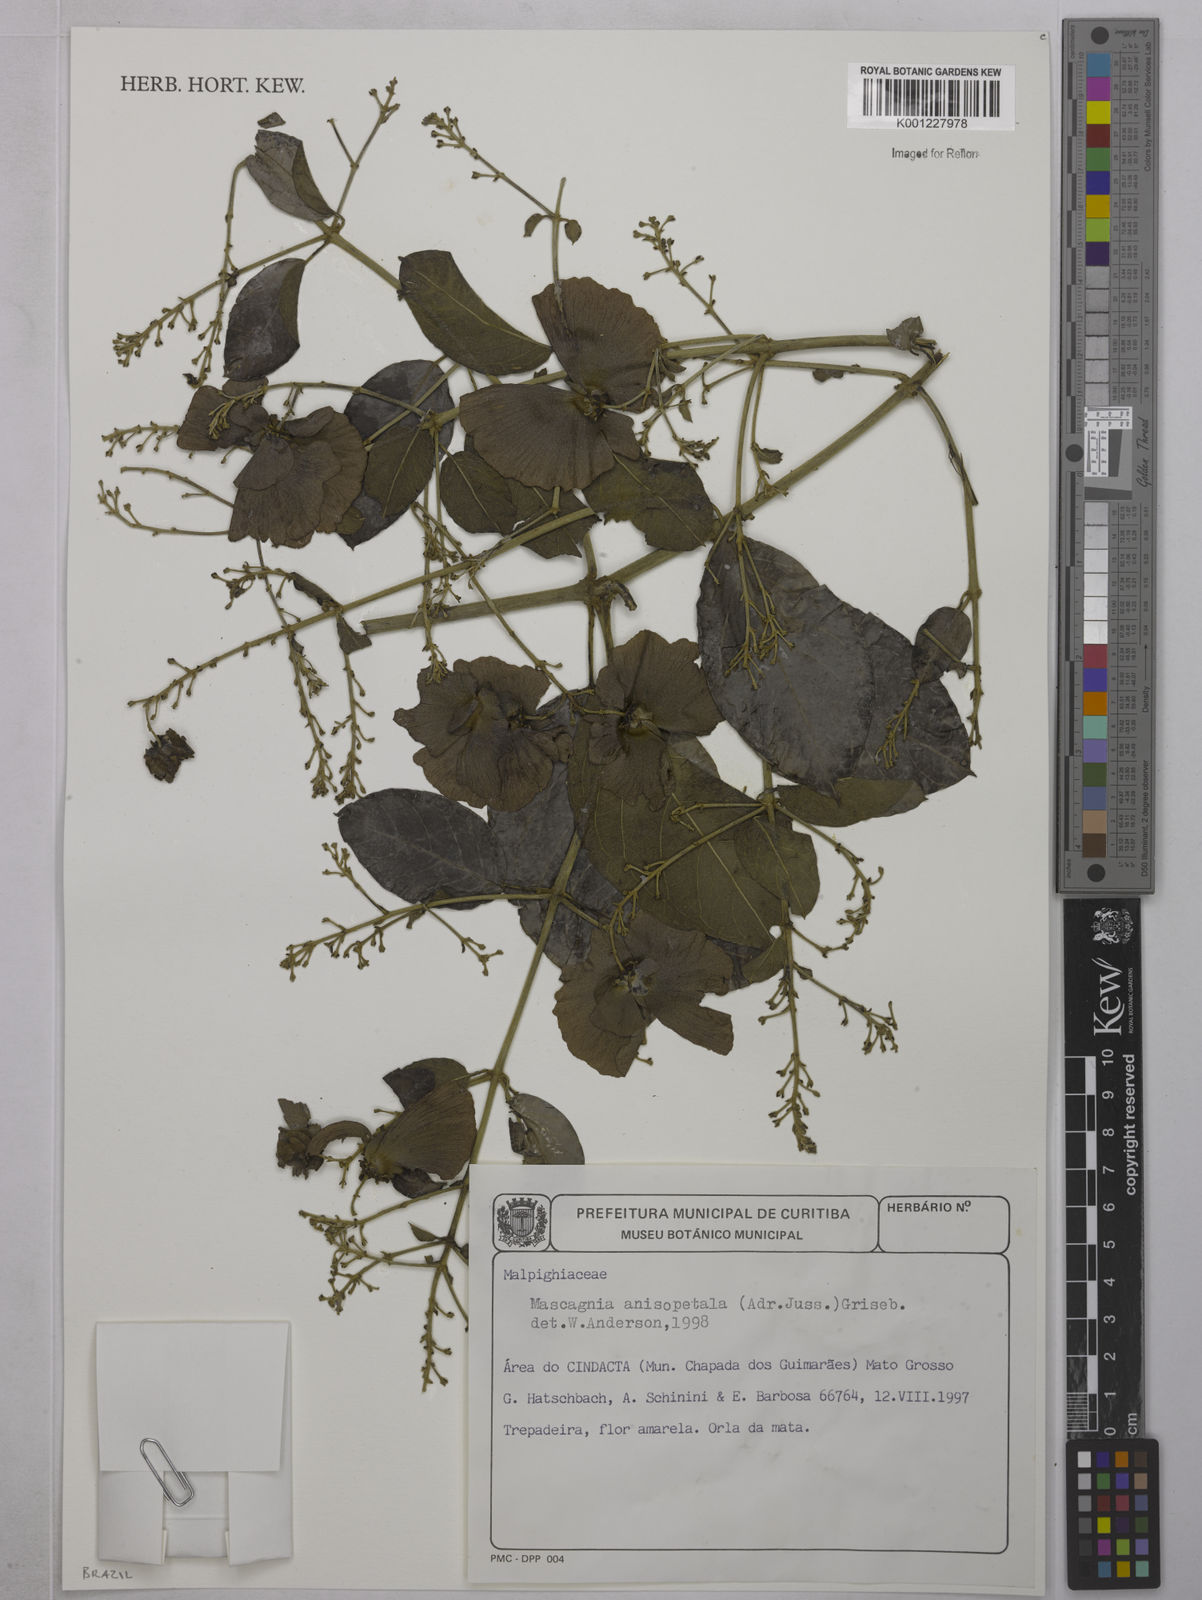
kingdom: Plantae
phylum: Tracheophyta
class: Magnoliopsida
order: Malpighiales
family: Malpighiaceae
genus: Alicia
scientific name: Alicia anisopetala
